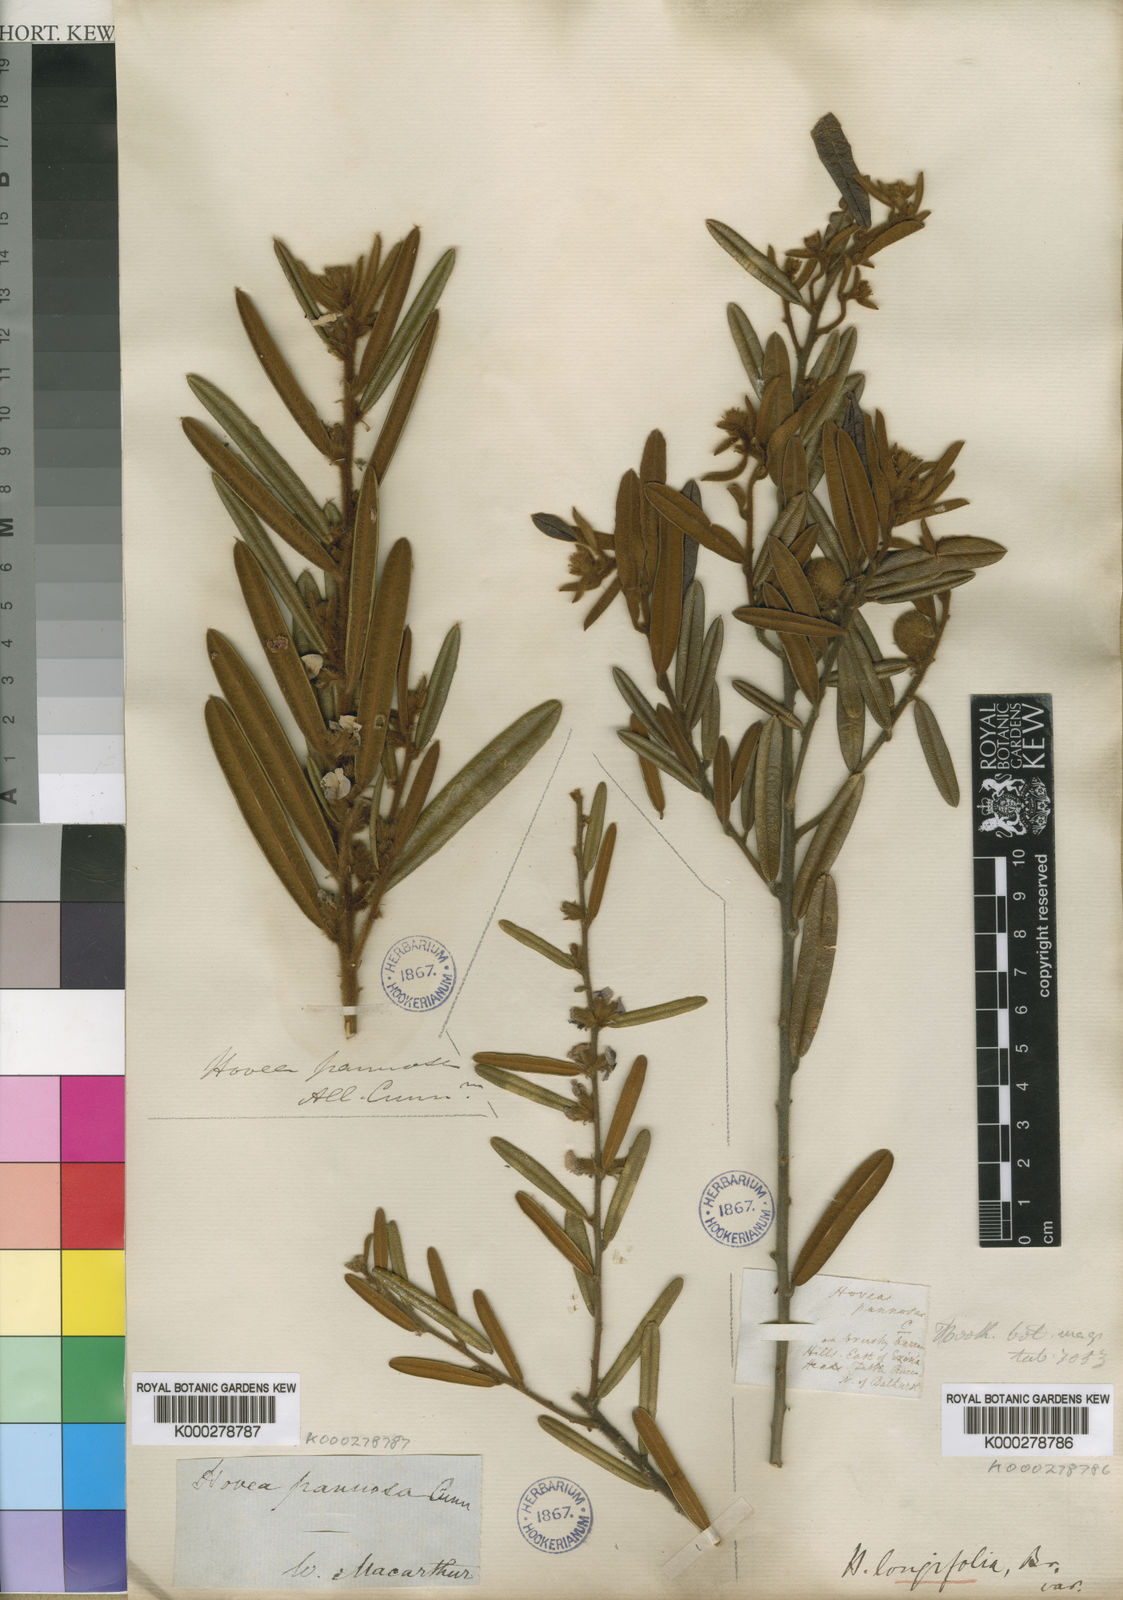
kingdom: Plantae
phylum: Tracheophyta
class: Magnoliopsida
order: Fabales
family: Fabaceae
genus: Hovea
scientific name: Hovea lanceolata
